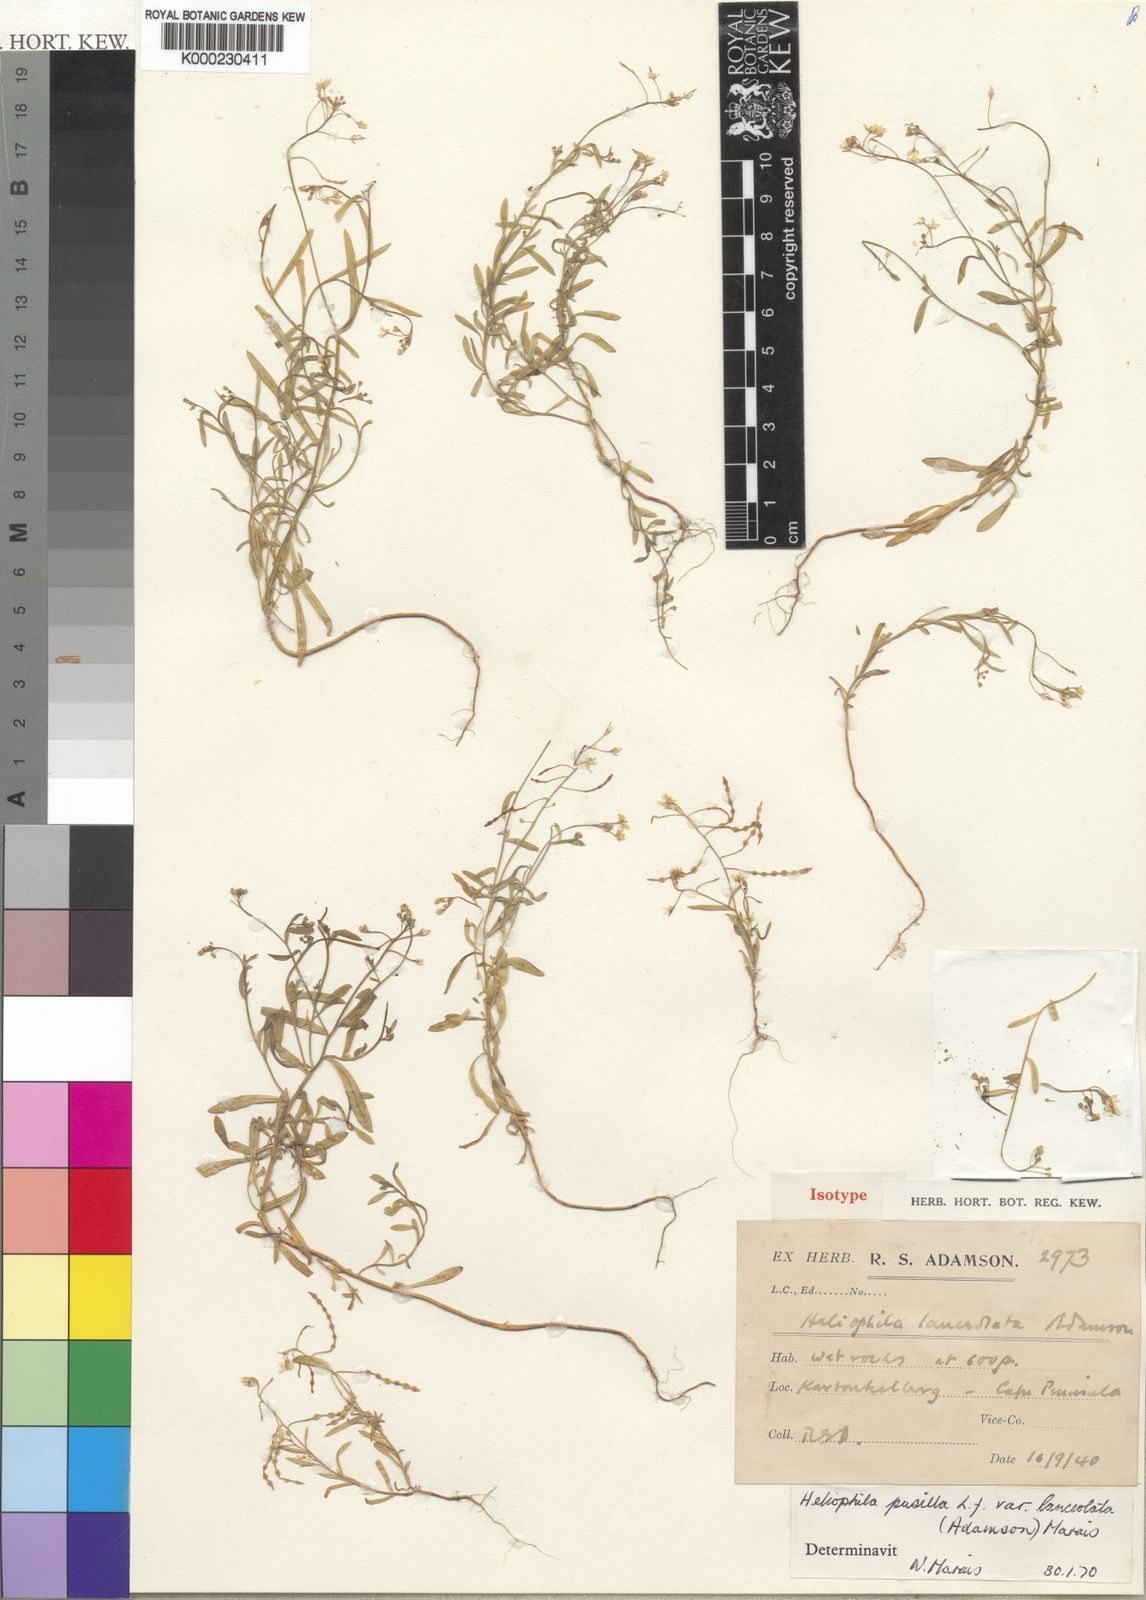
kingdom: Plantae
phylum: Tracheophyta
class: Magnoliopsida
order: Brassicales
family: Brassicaceae
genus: Heliophila
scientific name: Heliophila pusilla
